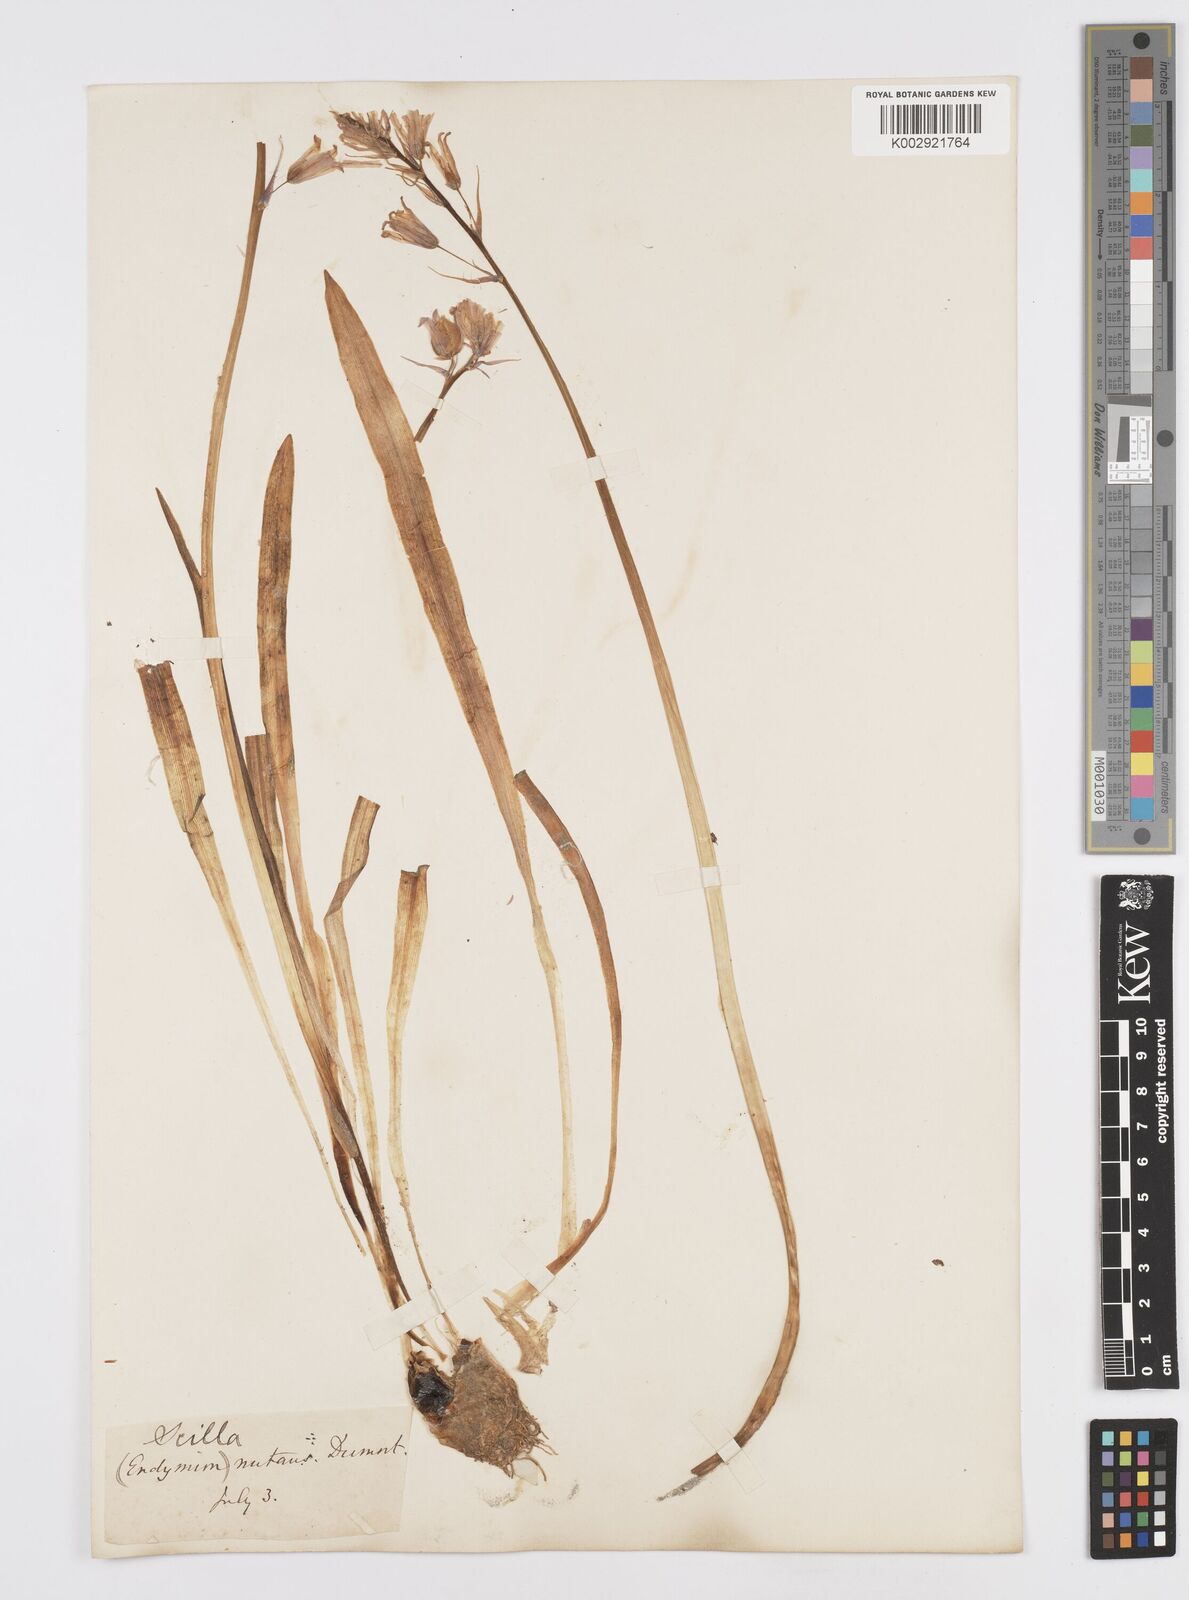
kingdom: Plantae
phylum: Tracheophyta
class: Liliopsida
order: Asparagales
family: Asparagaceae
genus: Hyacinthoides
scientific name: Hyacinthoides non-scripta
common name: Bluebell
